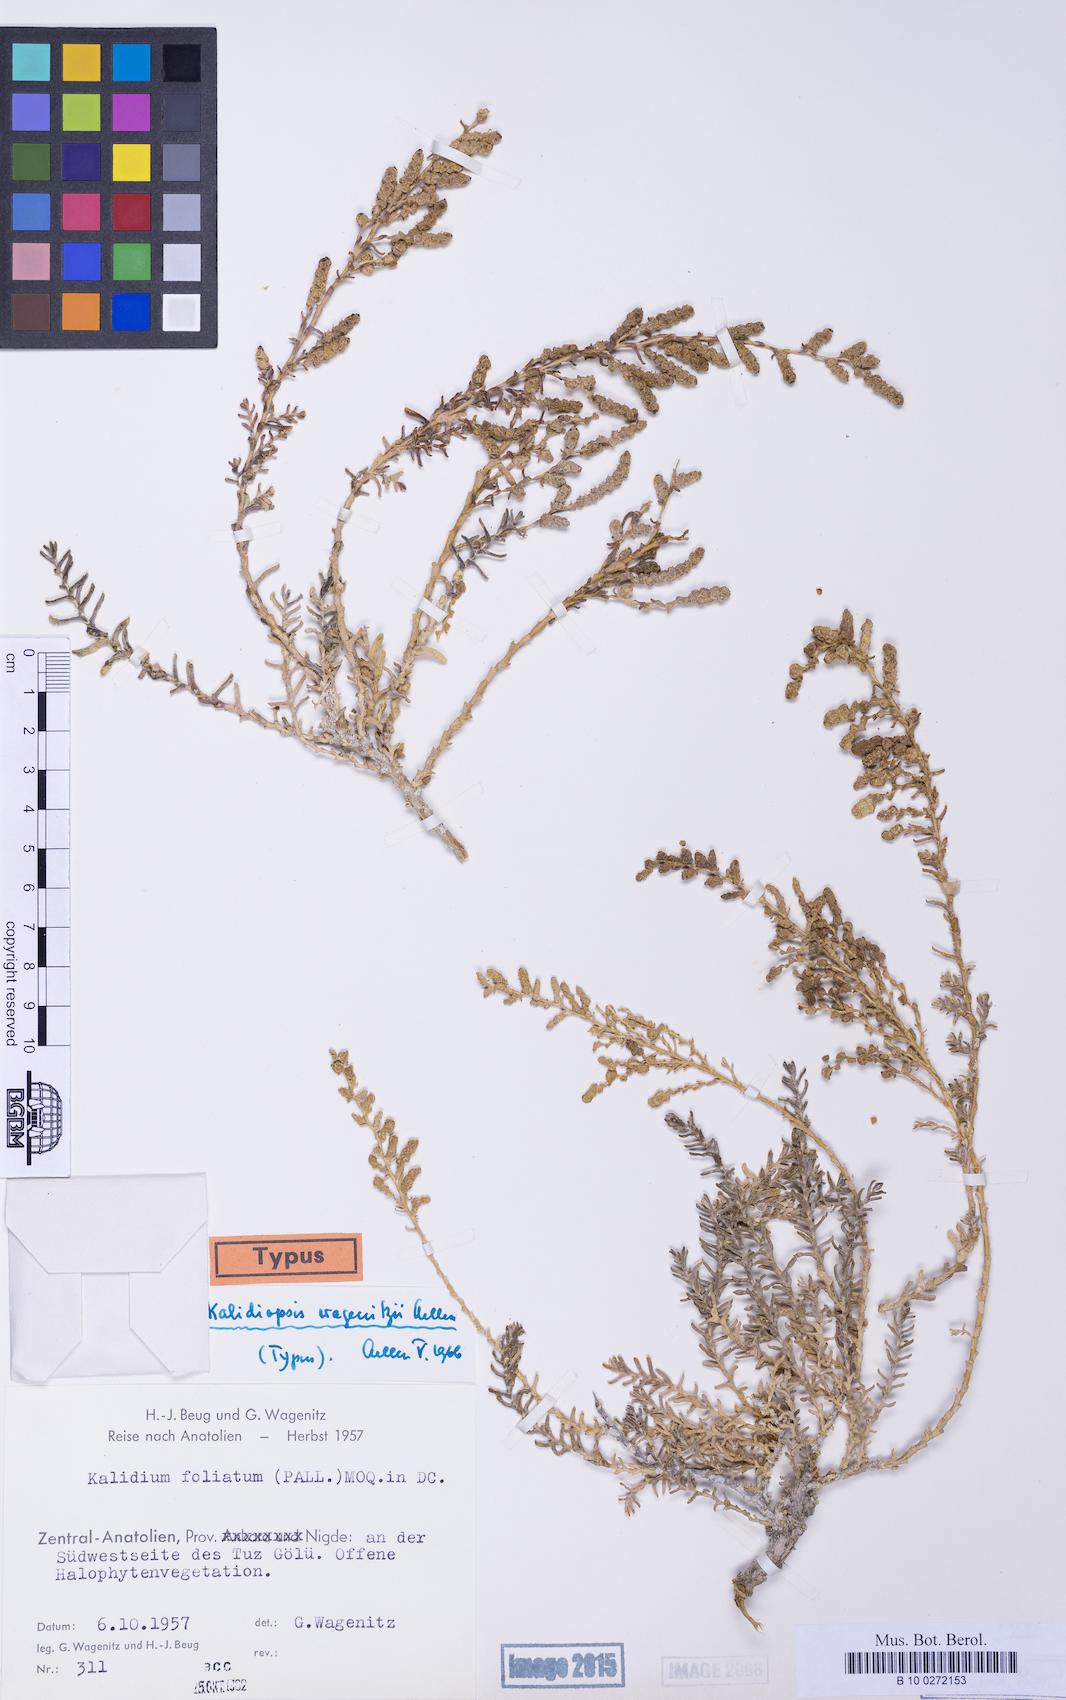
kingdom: Plantae
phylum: Tracheophyta
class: Magnoliopsida
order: Caryophyllales
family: Amaranthaceae
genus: Kalidium
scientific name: Kalidium wagenitzii
